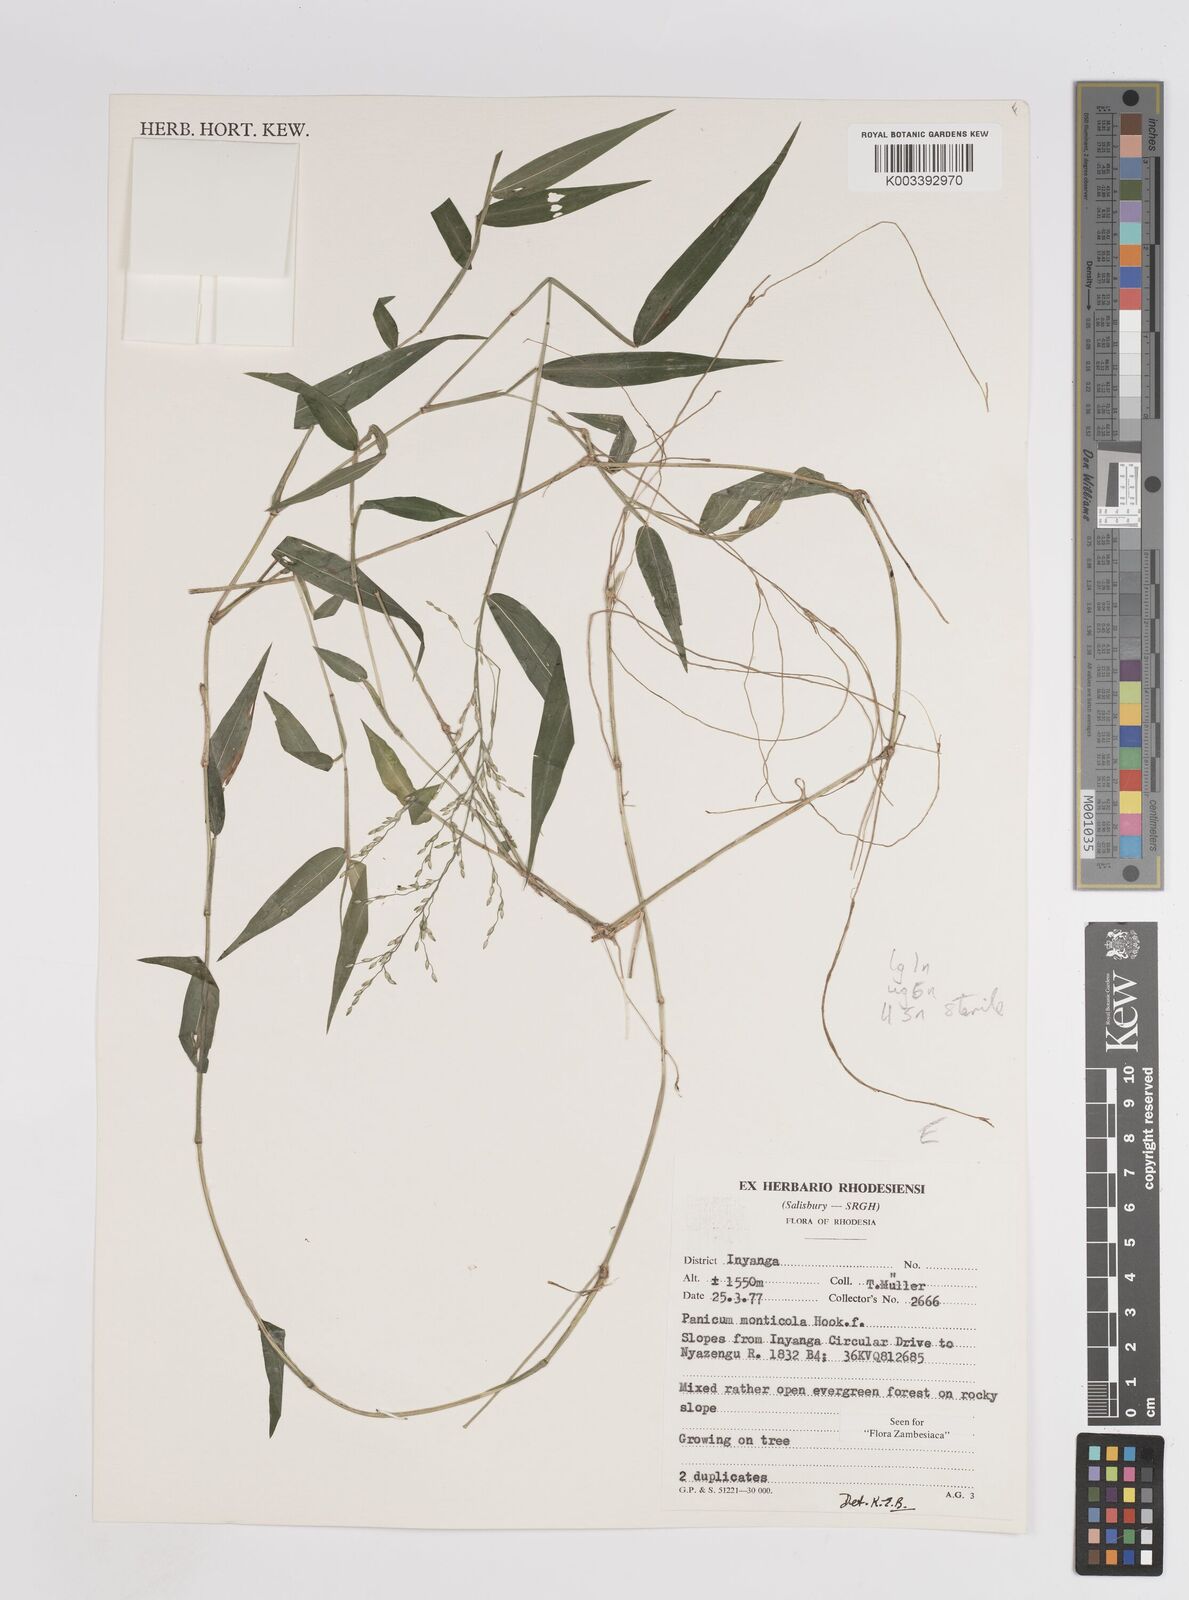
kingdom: Plantae
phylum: Tracheophyta
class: Liliopsida
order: Poales
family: Poaceae
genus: Panicum
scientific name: Panicum monticola
